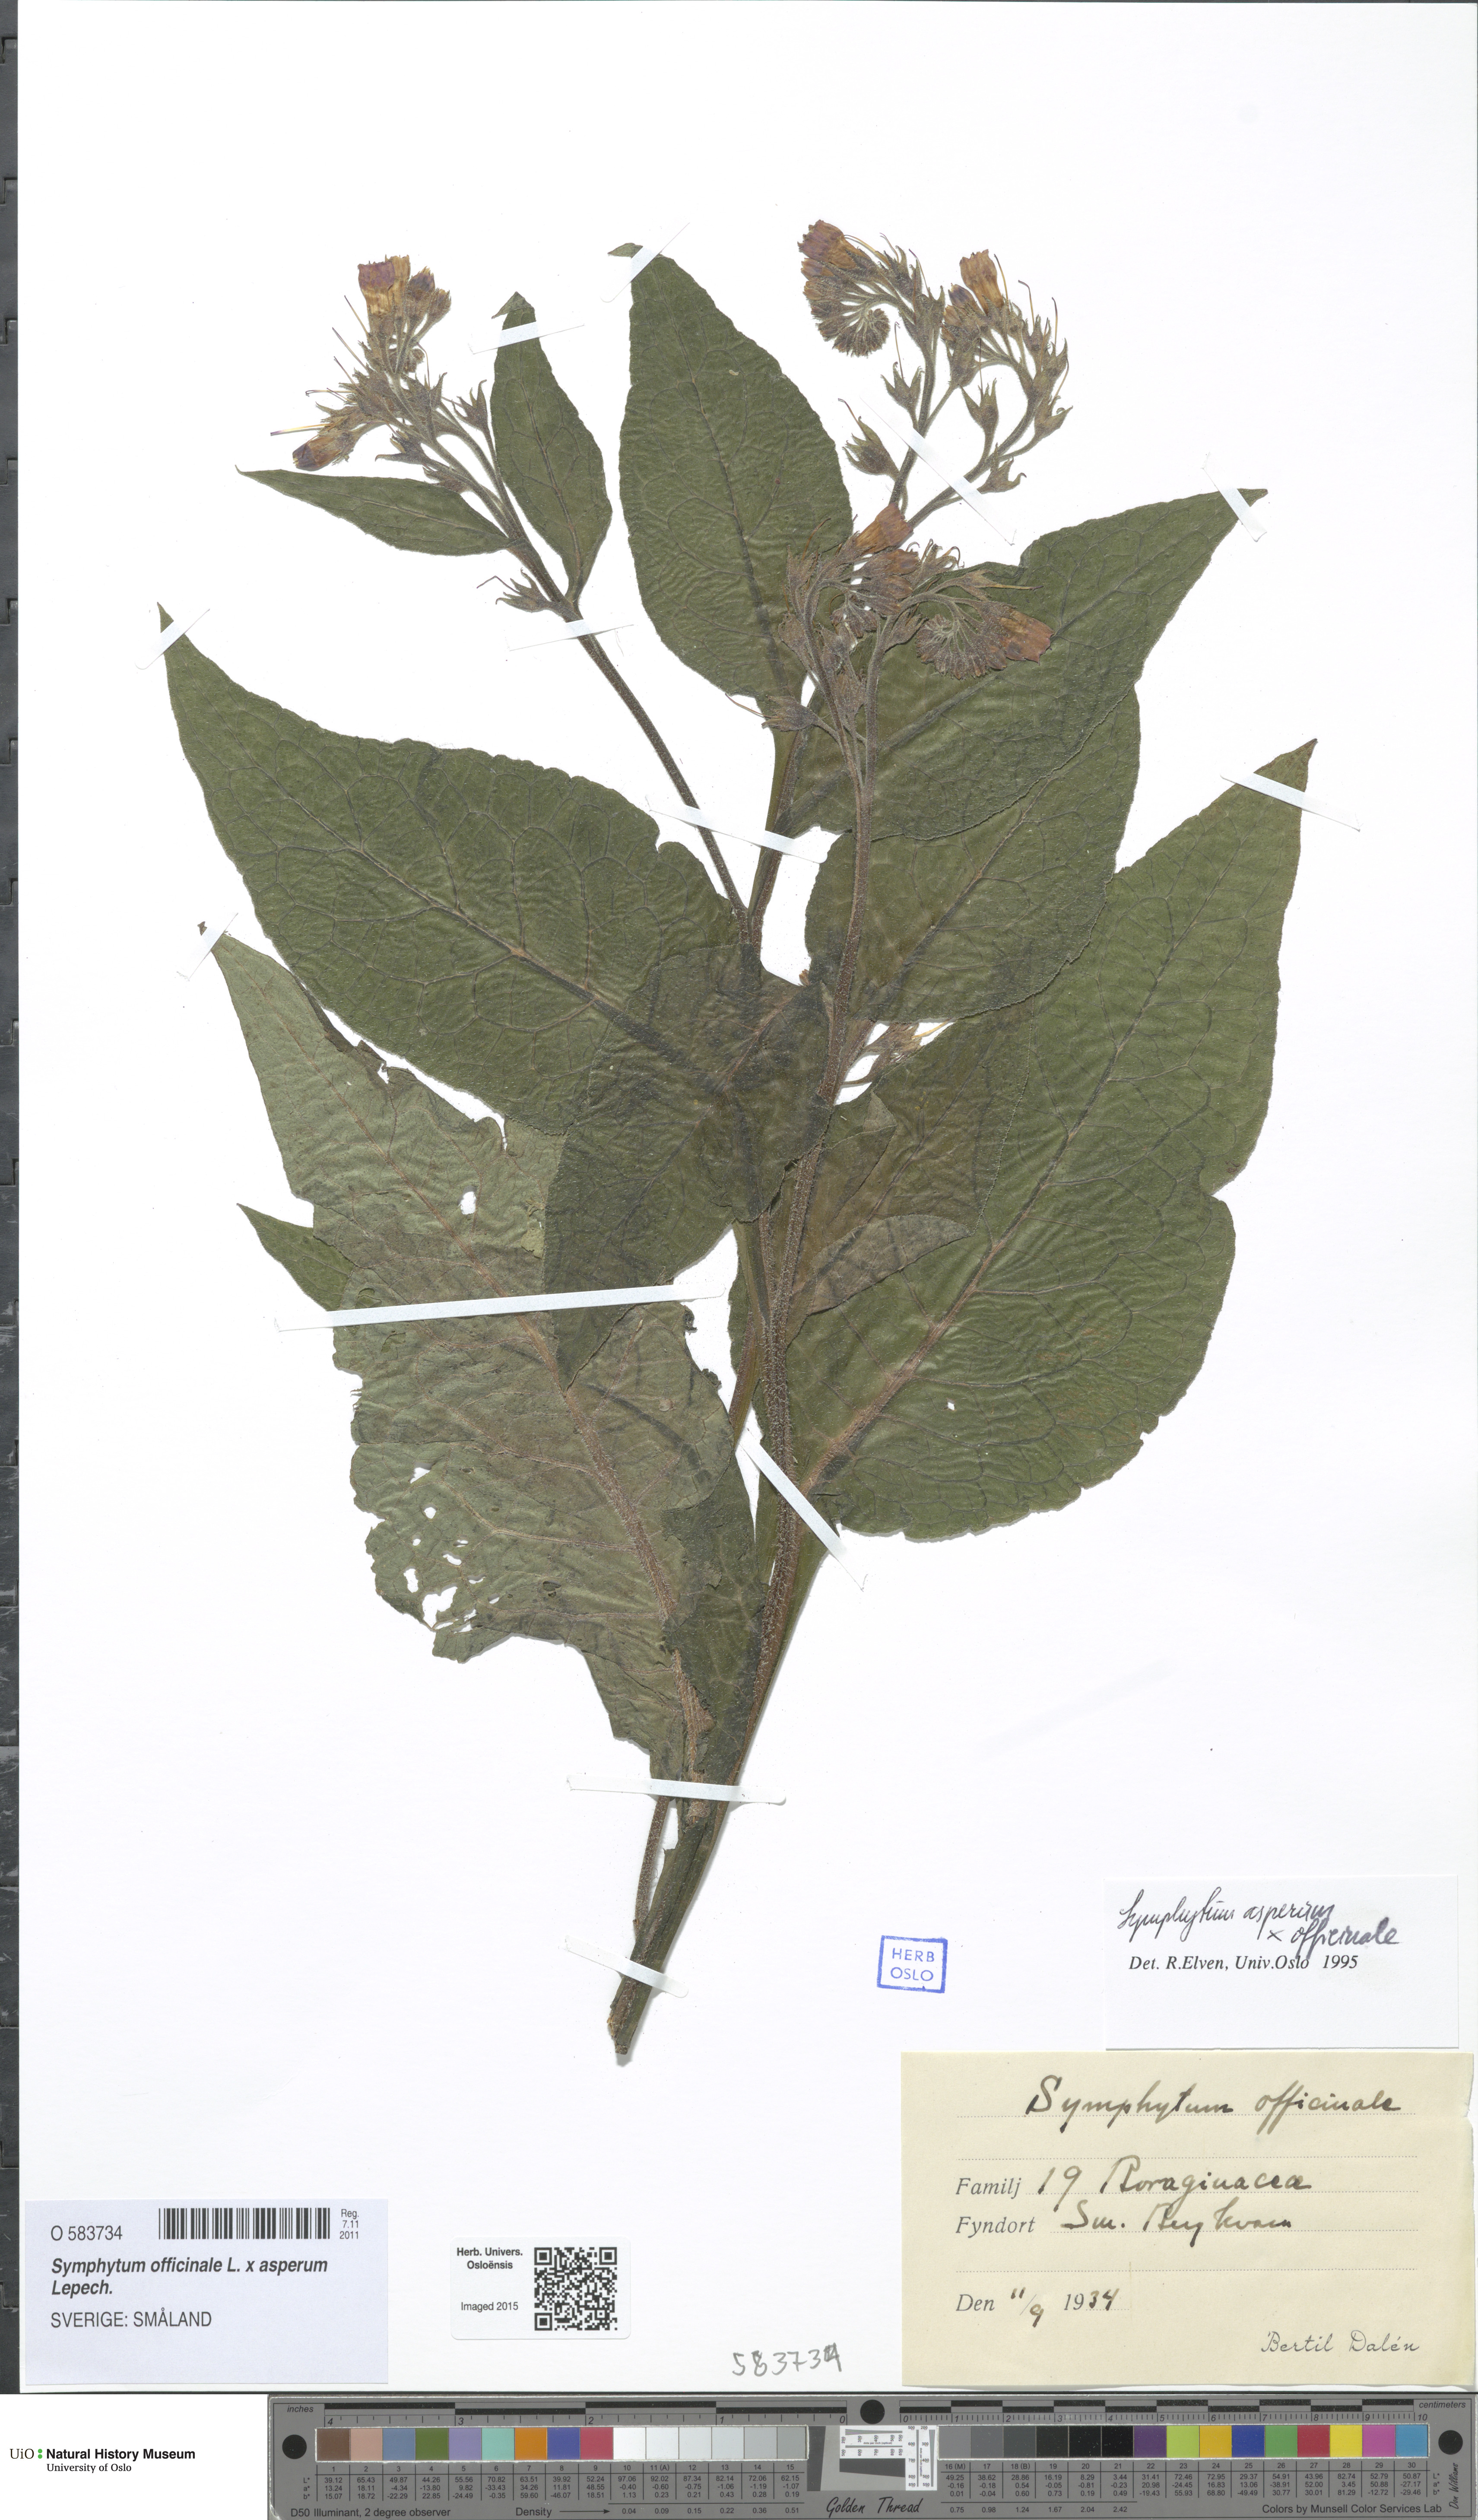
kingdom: Plantae
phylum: Tracheophyta
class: Magnoliopsida
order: Boraginales
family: Boraginaceae
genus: Symphytum
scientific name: Symphytum
